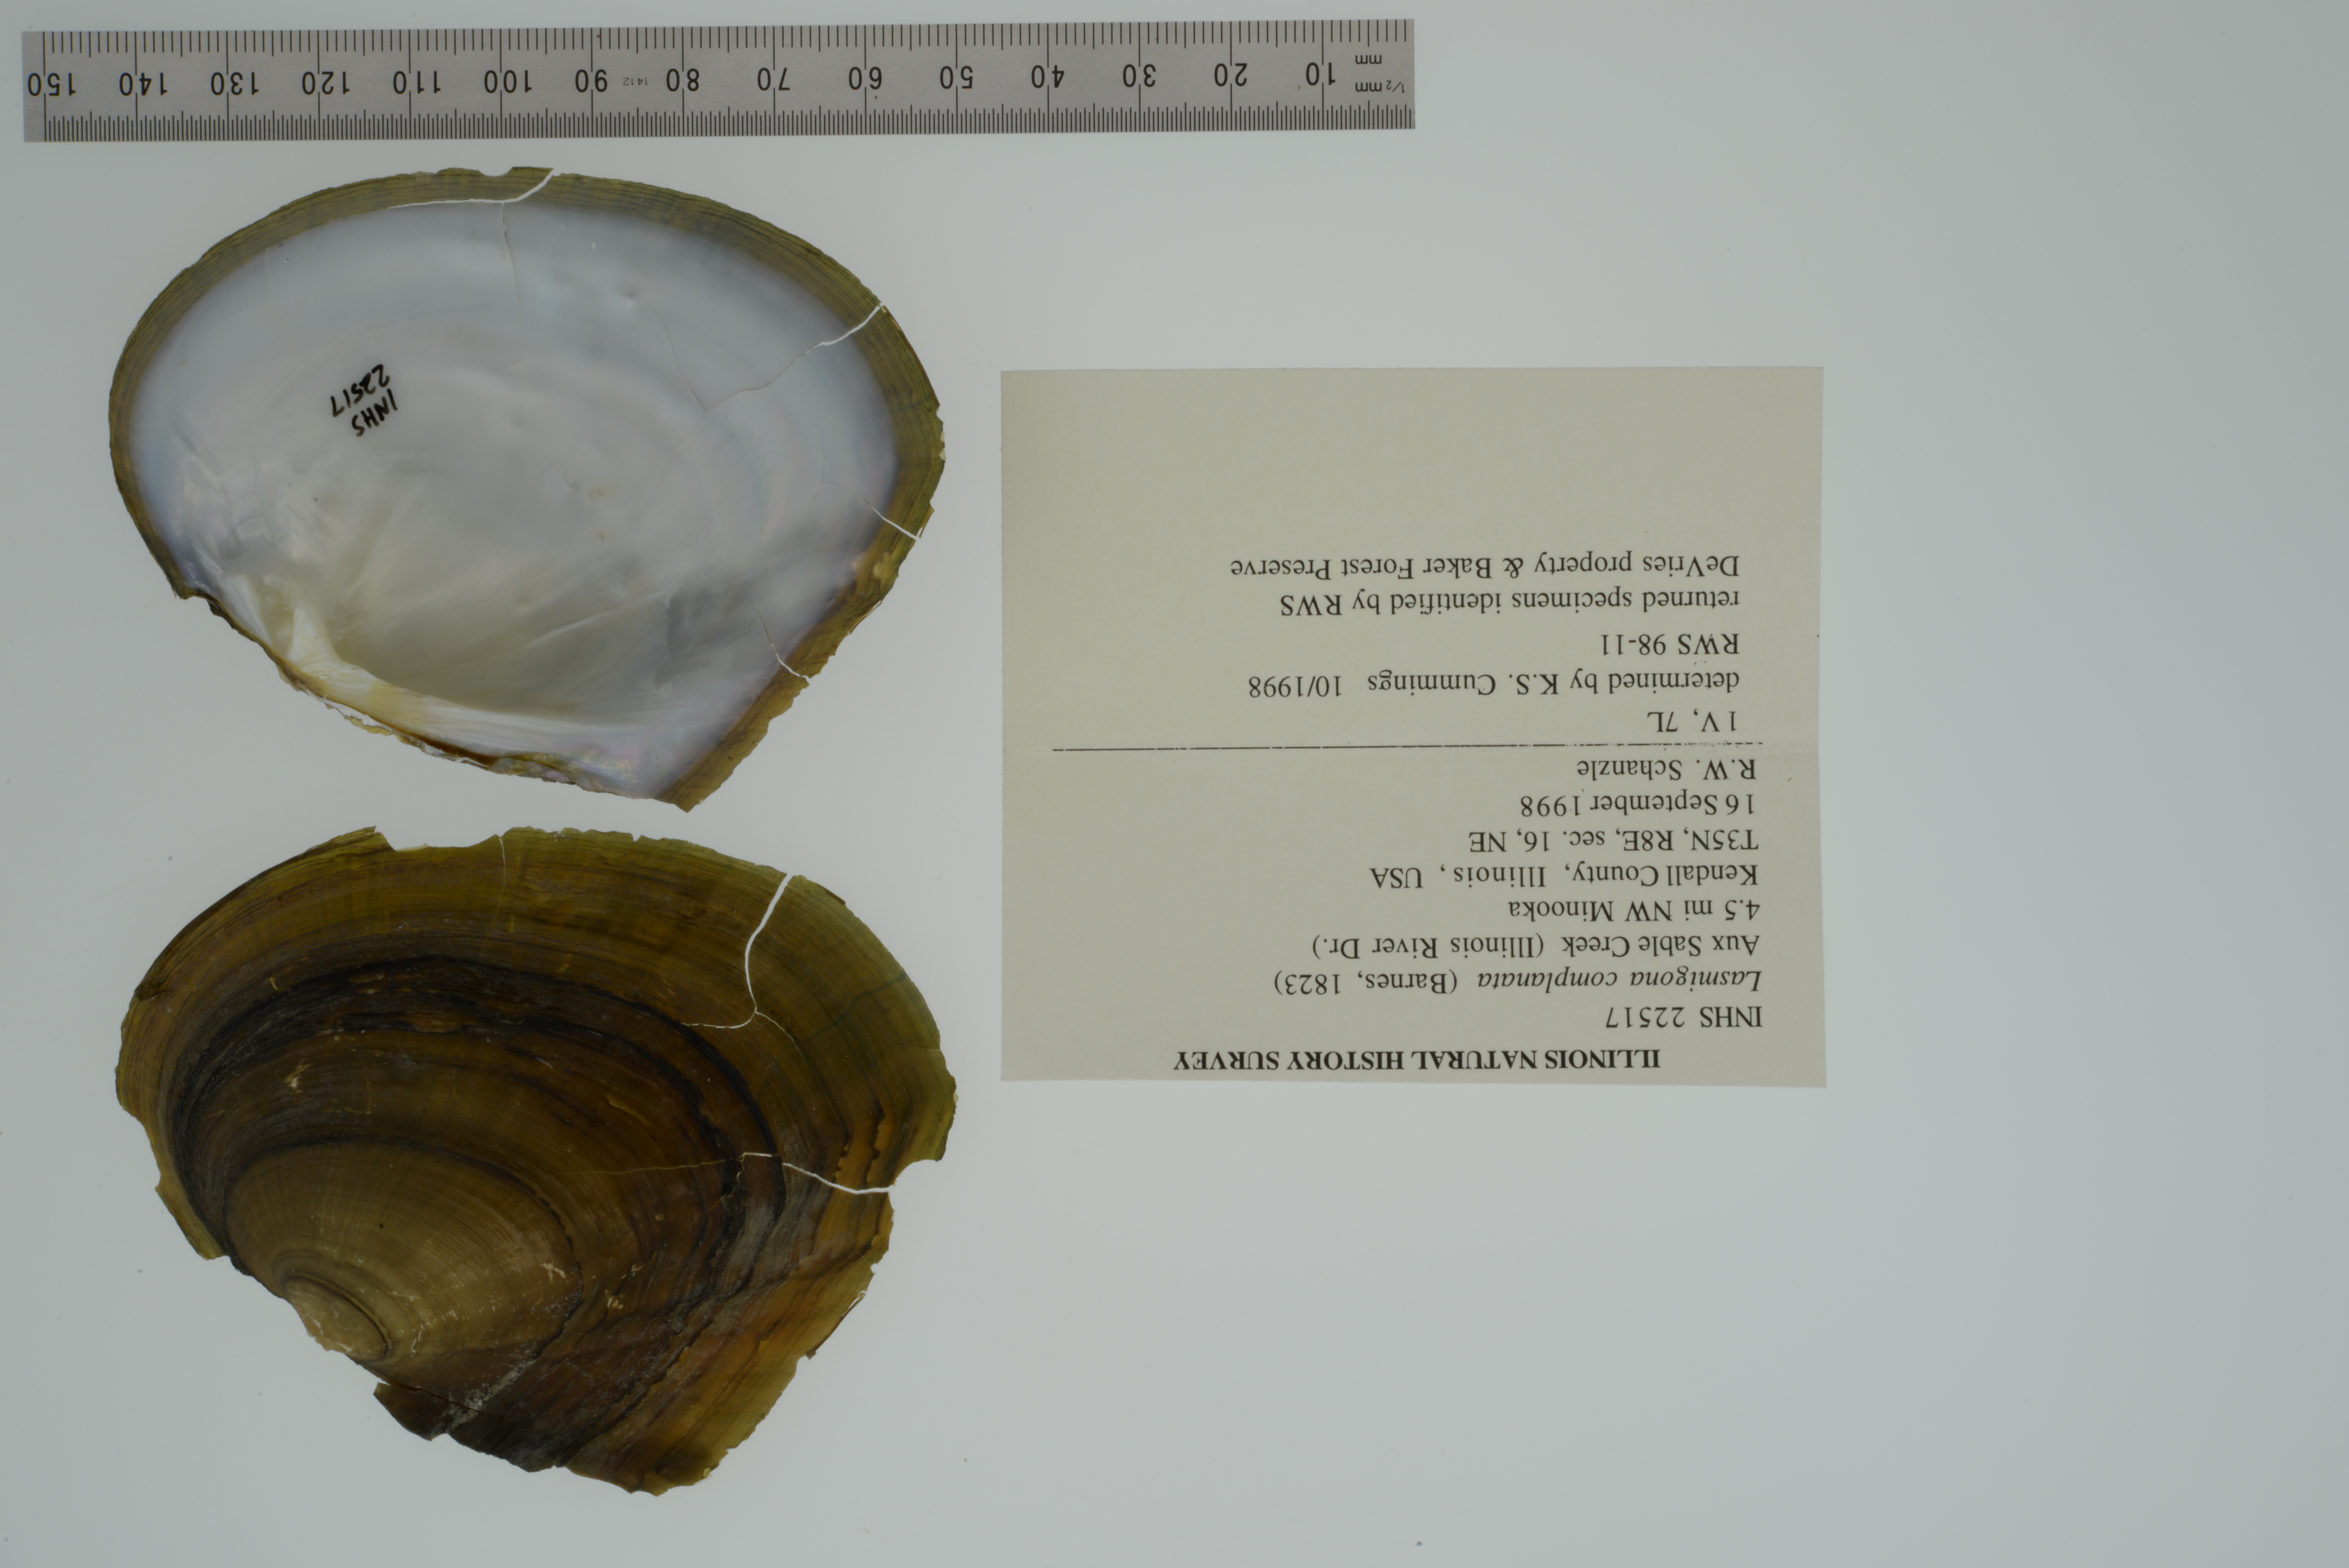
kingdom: Animalia
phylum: Mollusca
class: Bivalvia
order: Unionida
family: Unionidae
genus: Lasmigona
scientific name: Lasmigona complanata
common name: White heelsplitter
